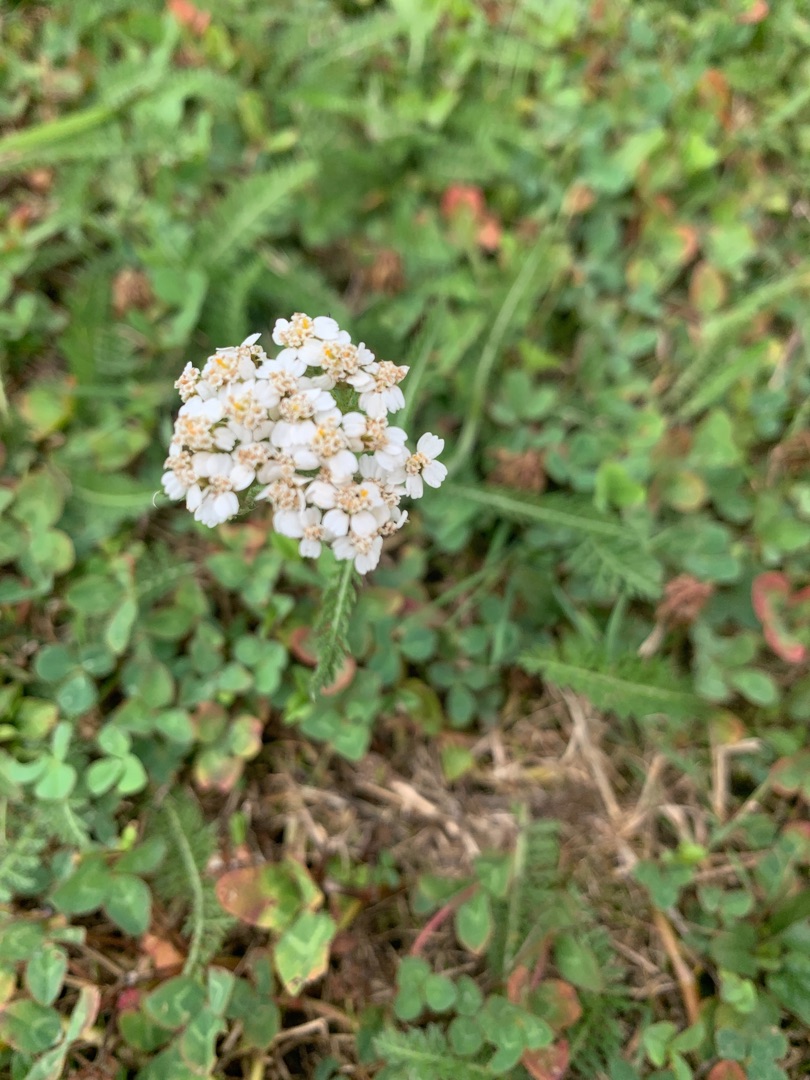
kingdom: Plantae
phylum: Tracheophyta
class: Magnoliopsida
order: Asterales
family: Asteraceae
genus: Achillea
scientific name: Achillea millefolium
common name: Almindelig røllike
